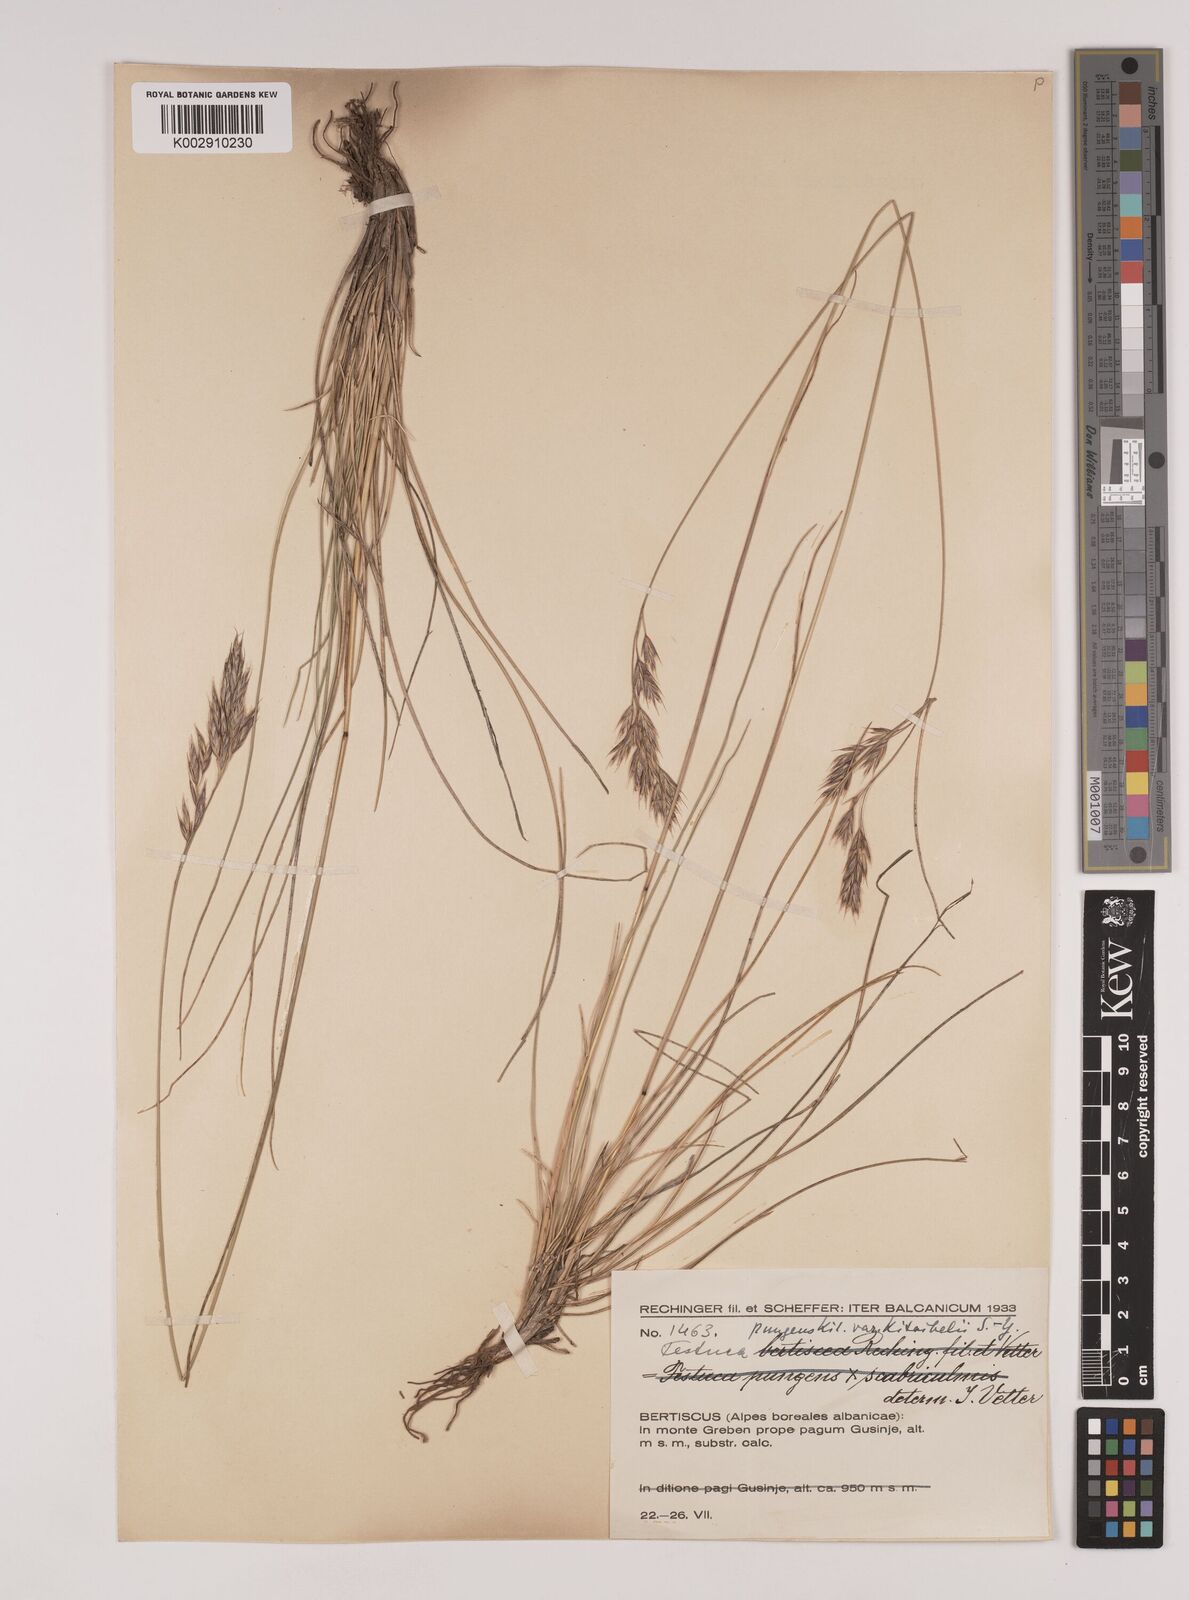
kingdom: Plantae
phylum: Tracheophyta
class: Liliopsida
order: Poales
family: Poaceae
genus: Festuca
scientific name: Festuca bosniaca
